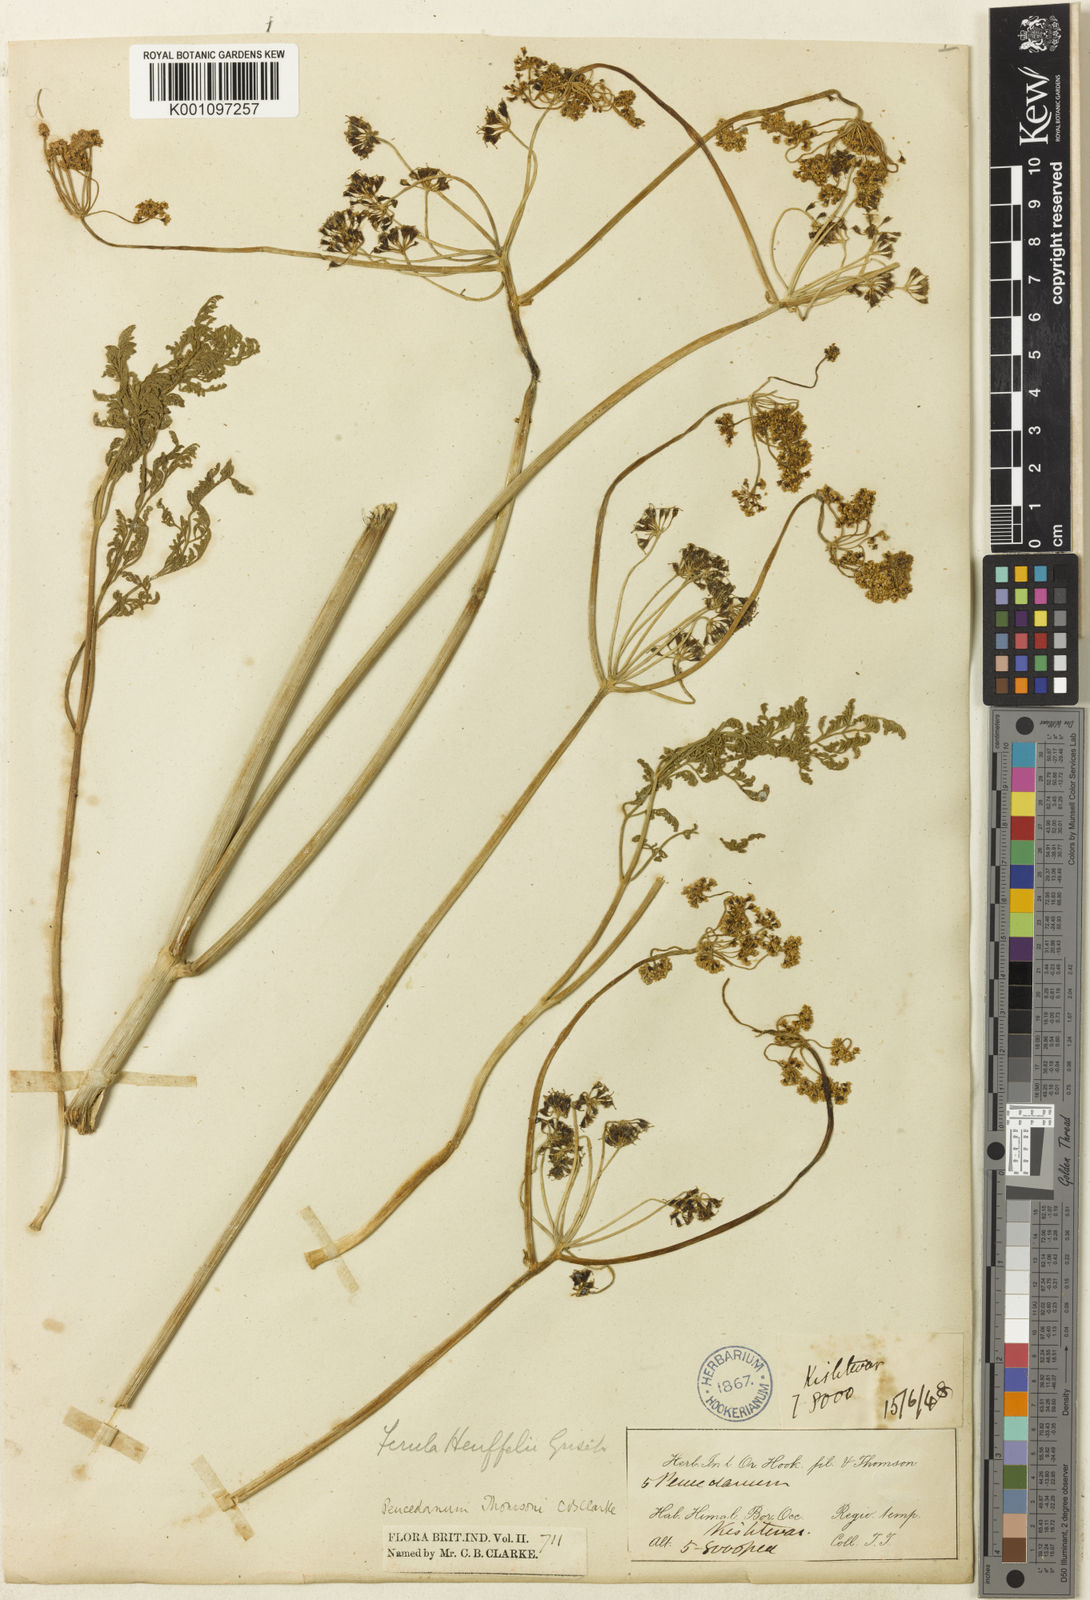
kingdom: Plantae
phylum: Tracheophyta
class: Magnoliopsida
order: Apiales
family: Apiaceae
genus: Ferula
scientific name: Ferula
